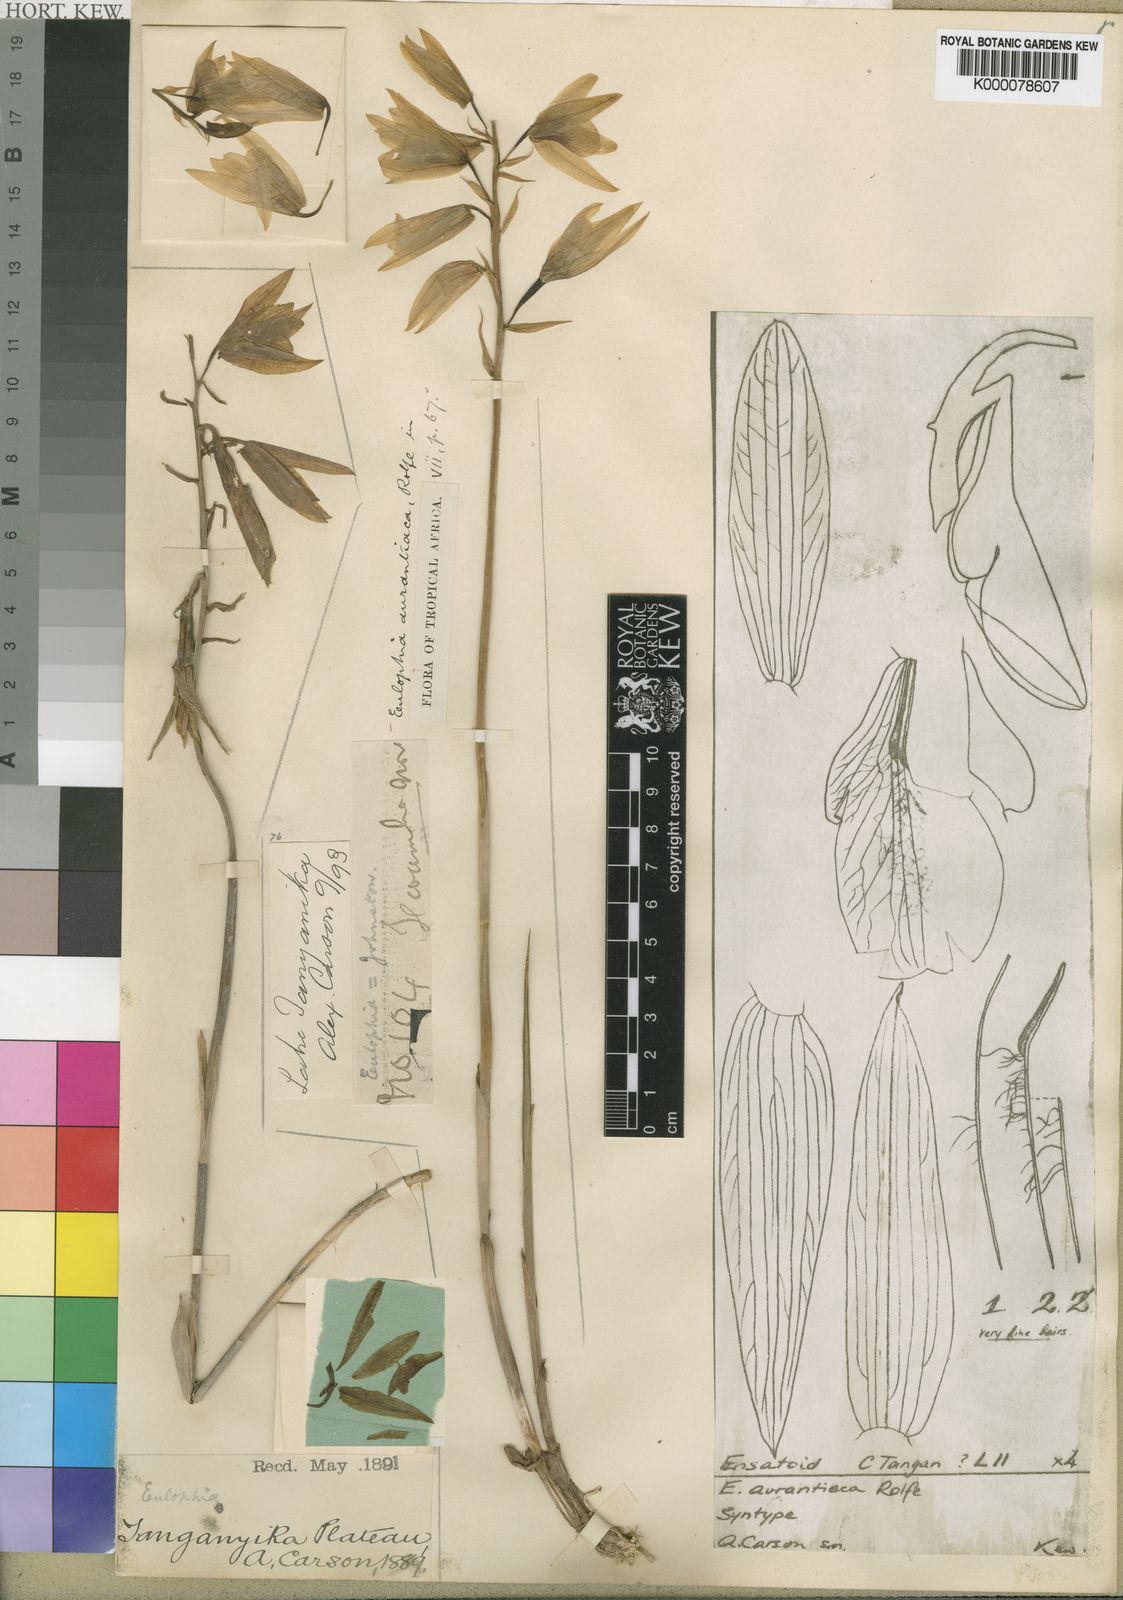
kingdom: Plantae
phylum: Tracheophyta
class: Liliopsida
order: Asparagales
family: Orchidaceae
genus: Eulophia
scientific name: Eulophia aurantiaca
